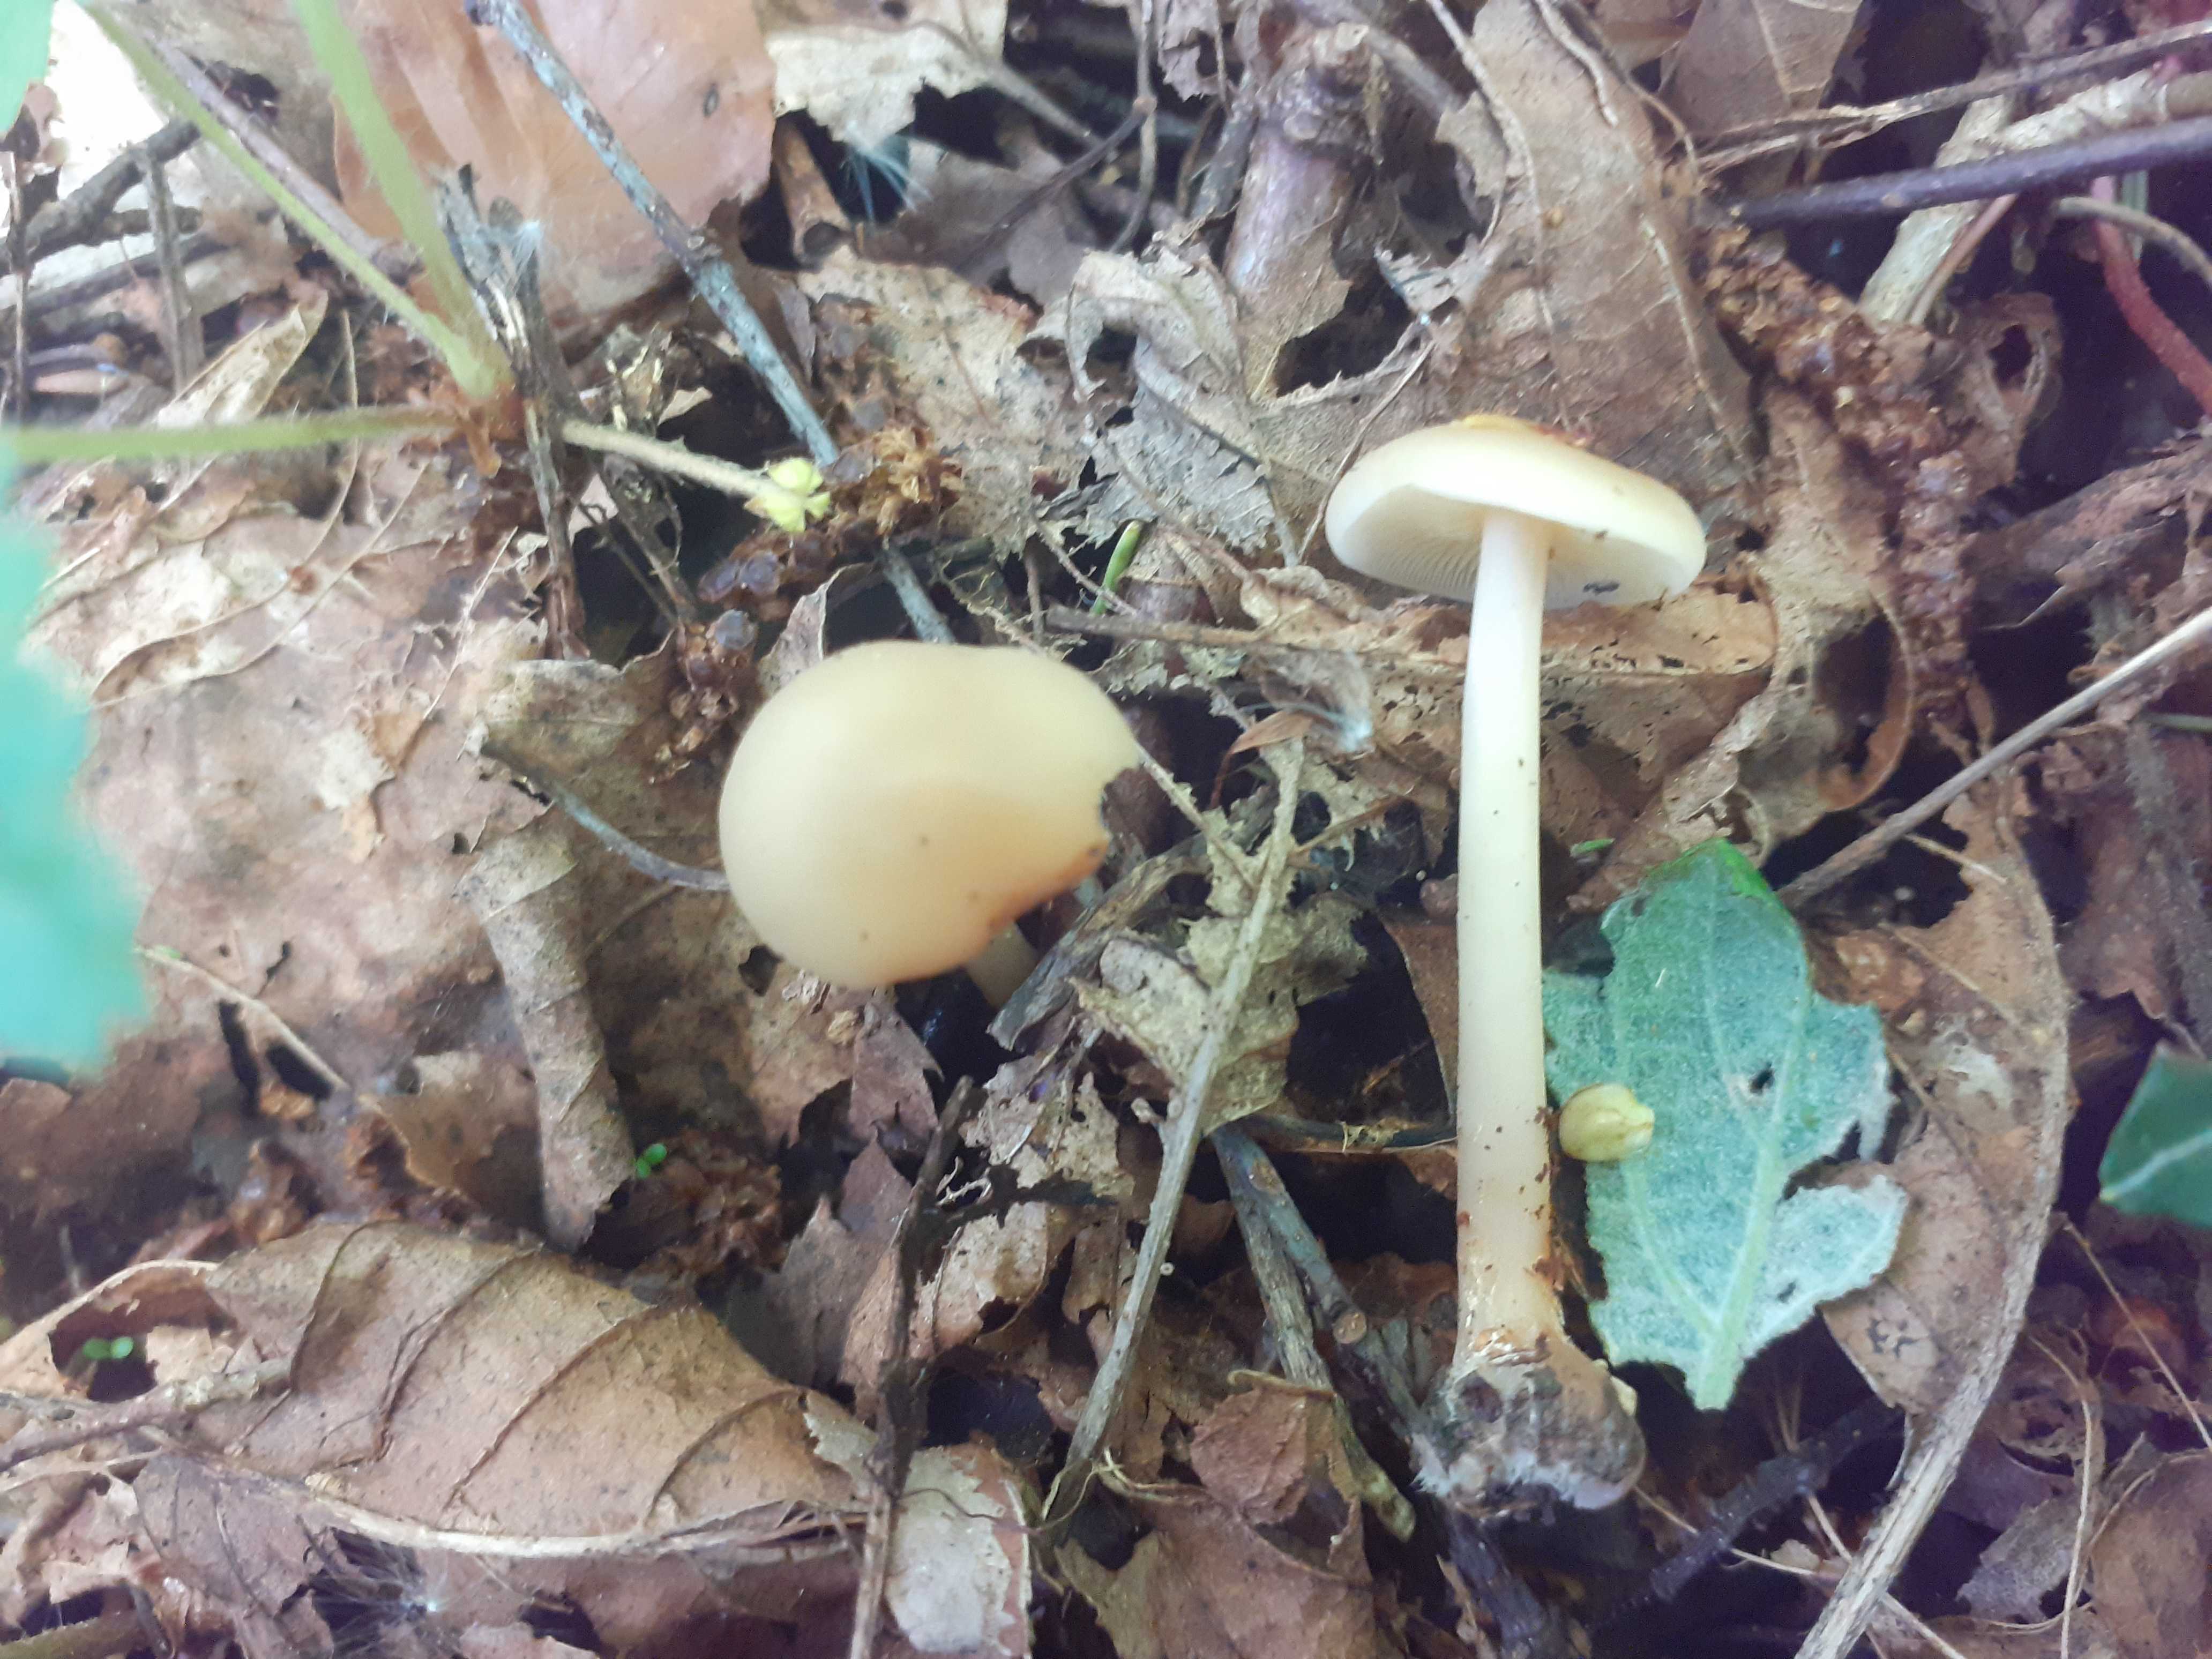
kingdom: Fungi
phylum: Basidiomycota
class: Agaricomycetes
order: Agaricales
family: Omphalotaceae
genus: Gymnopus
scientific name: Gymnopus aquosus
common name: bleg fladhat
